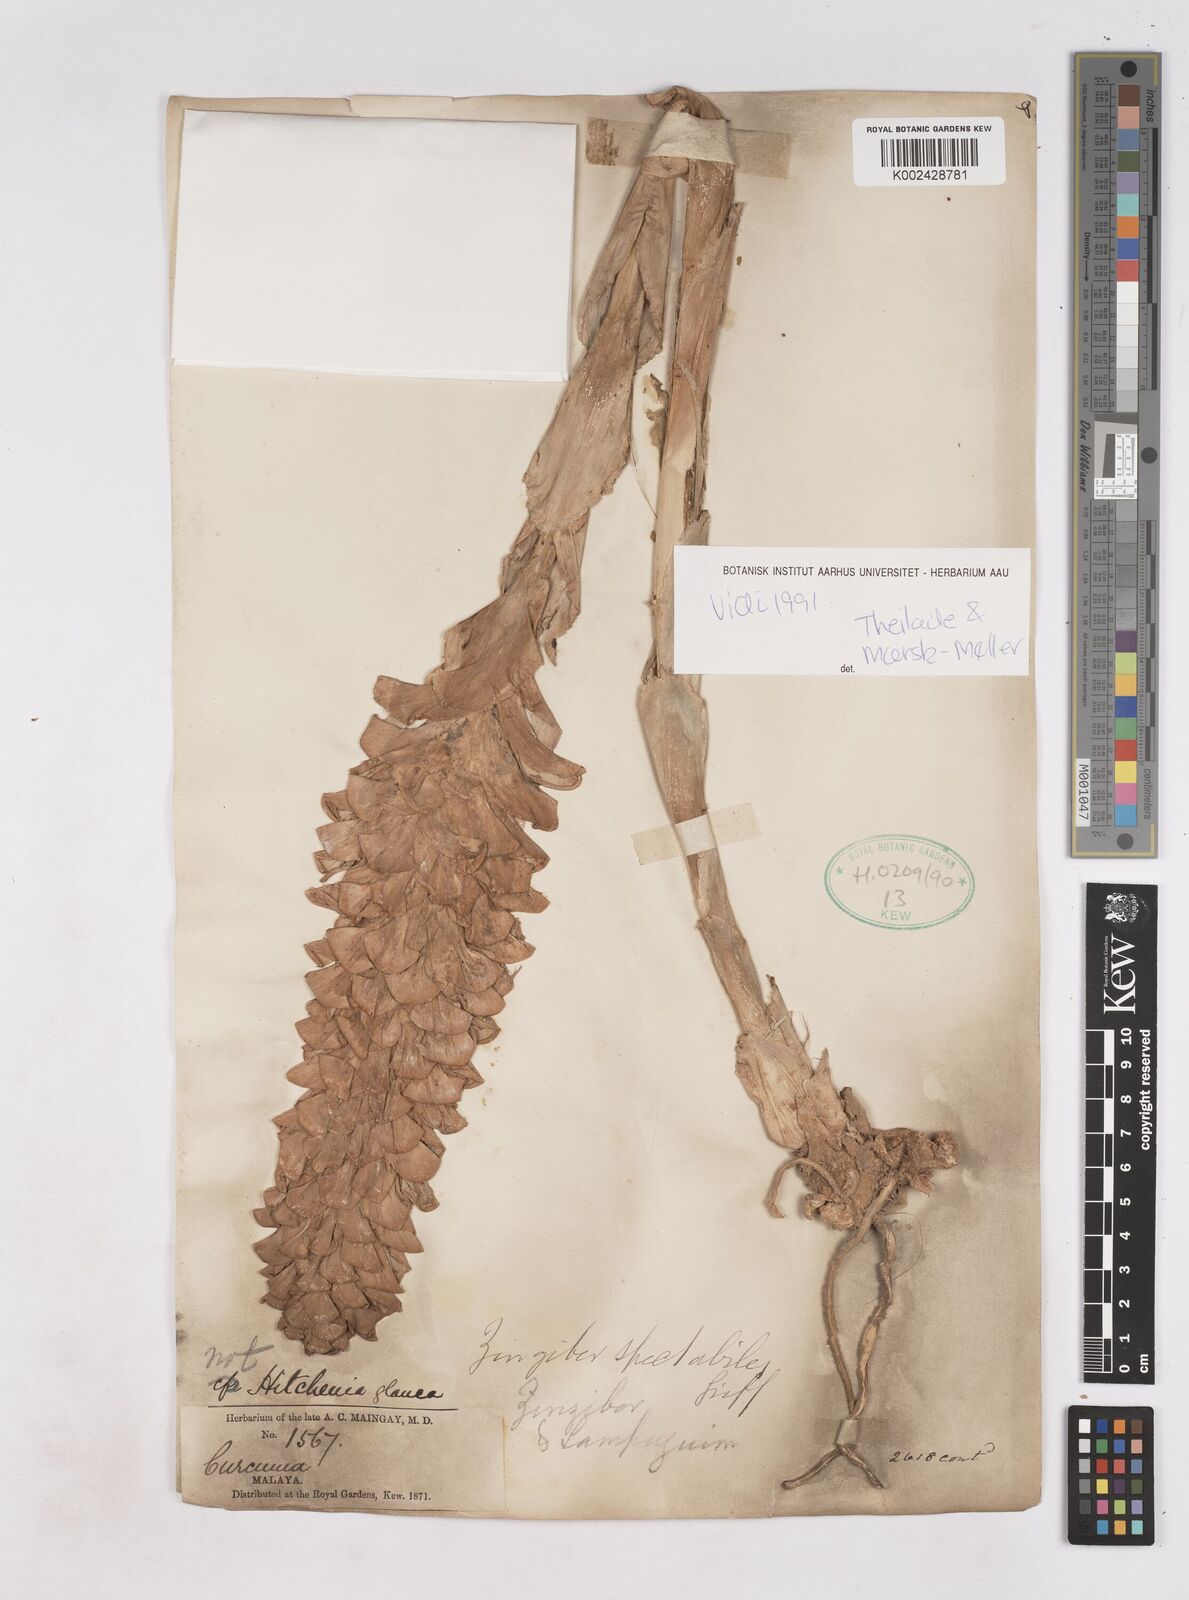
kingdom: Plantae
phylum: Tracheophyta
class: Liliopsida
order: Zingiberales
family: Zingiberaceae
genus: Zingiber
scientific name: Zingiber spectabile
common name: Beehive ginger
